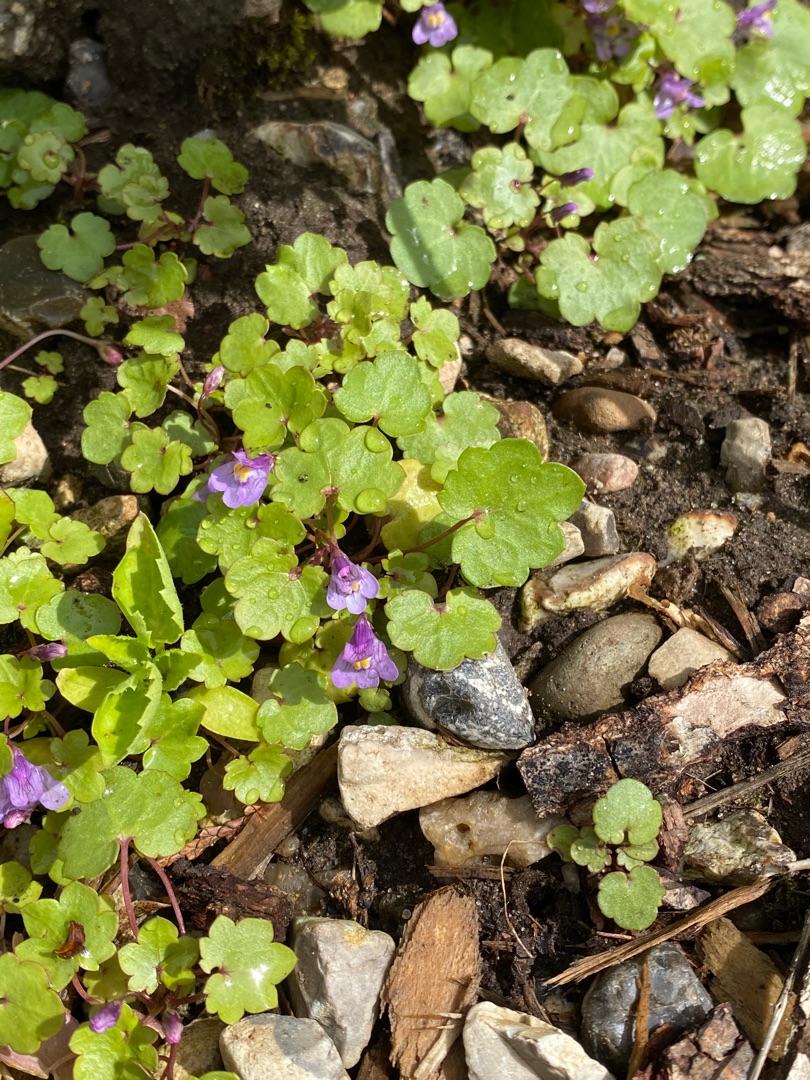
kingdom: Plantae
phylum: Tracheophyta
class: Magnoliopsida
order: Lamiales
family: Plantaginaceae
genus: Cymbalaria
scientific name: Cymbalaria muralis
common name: Vedbend-torskemund
